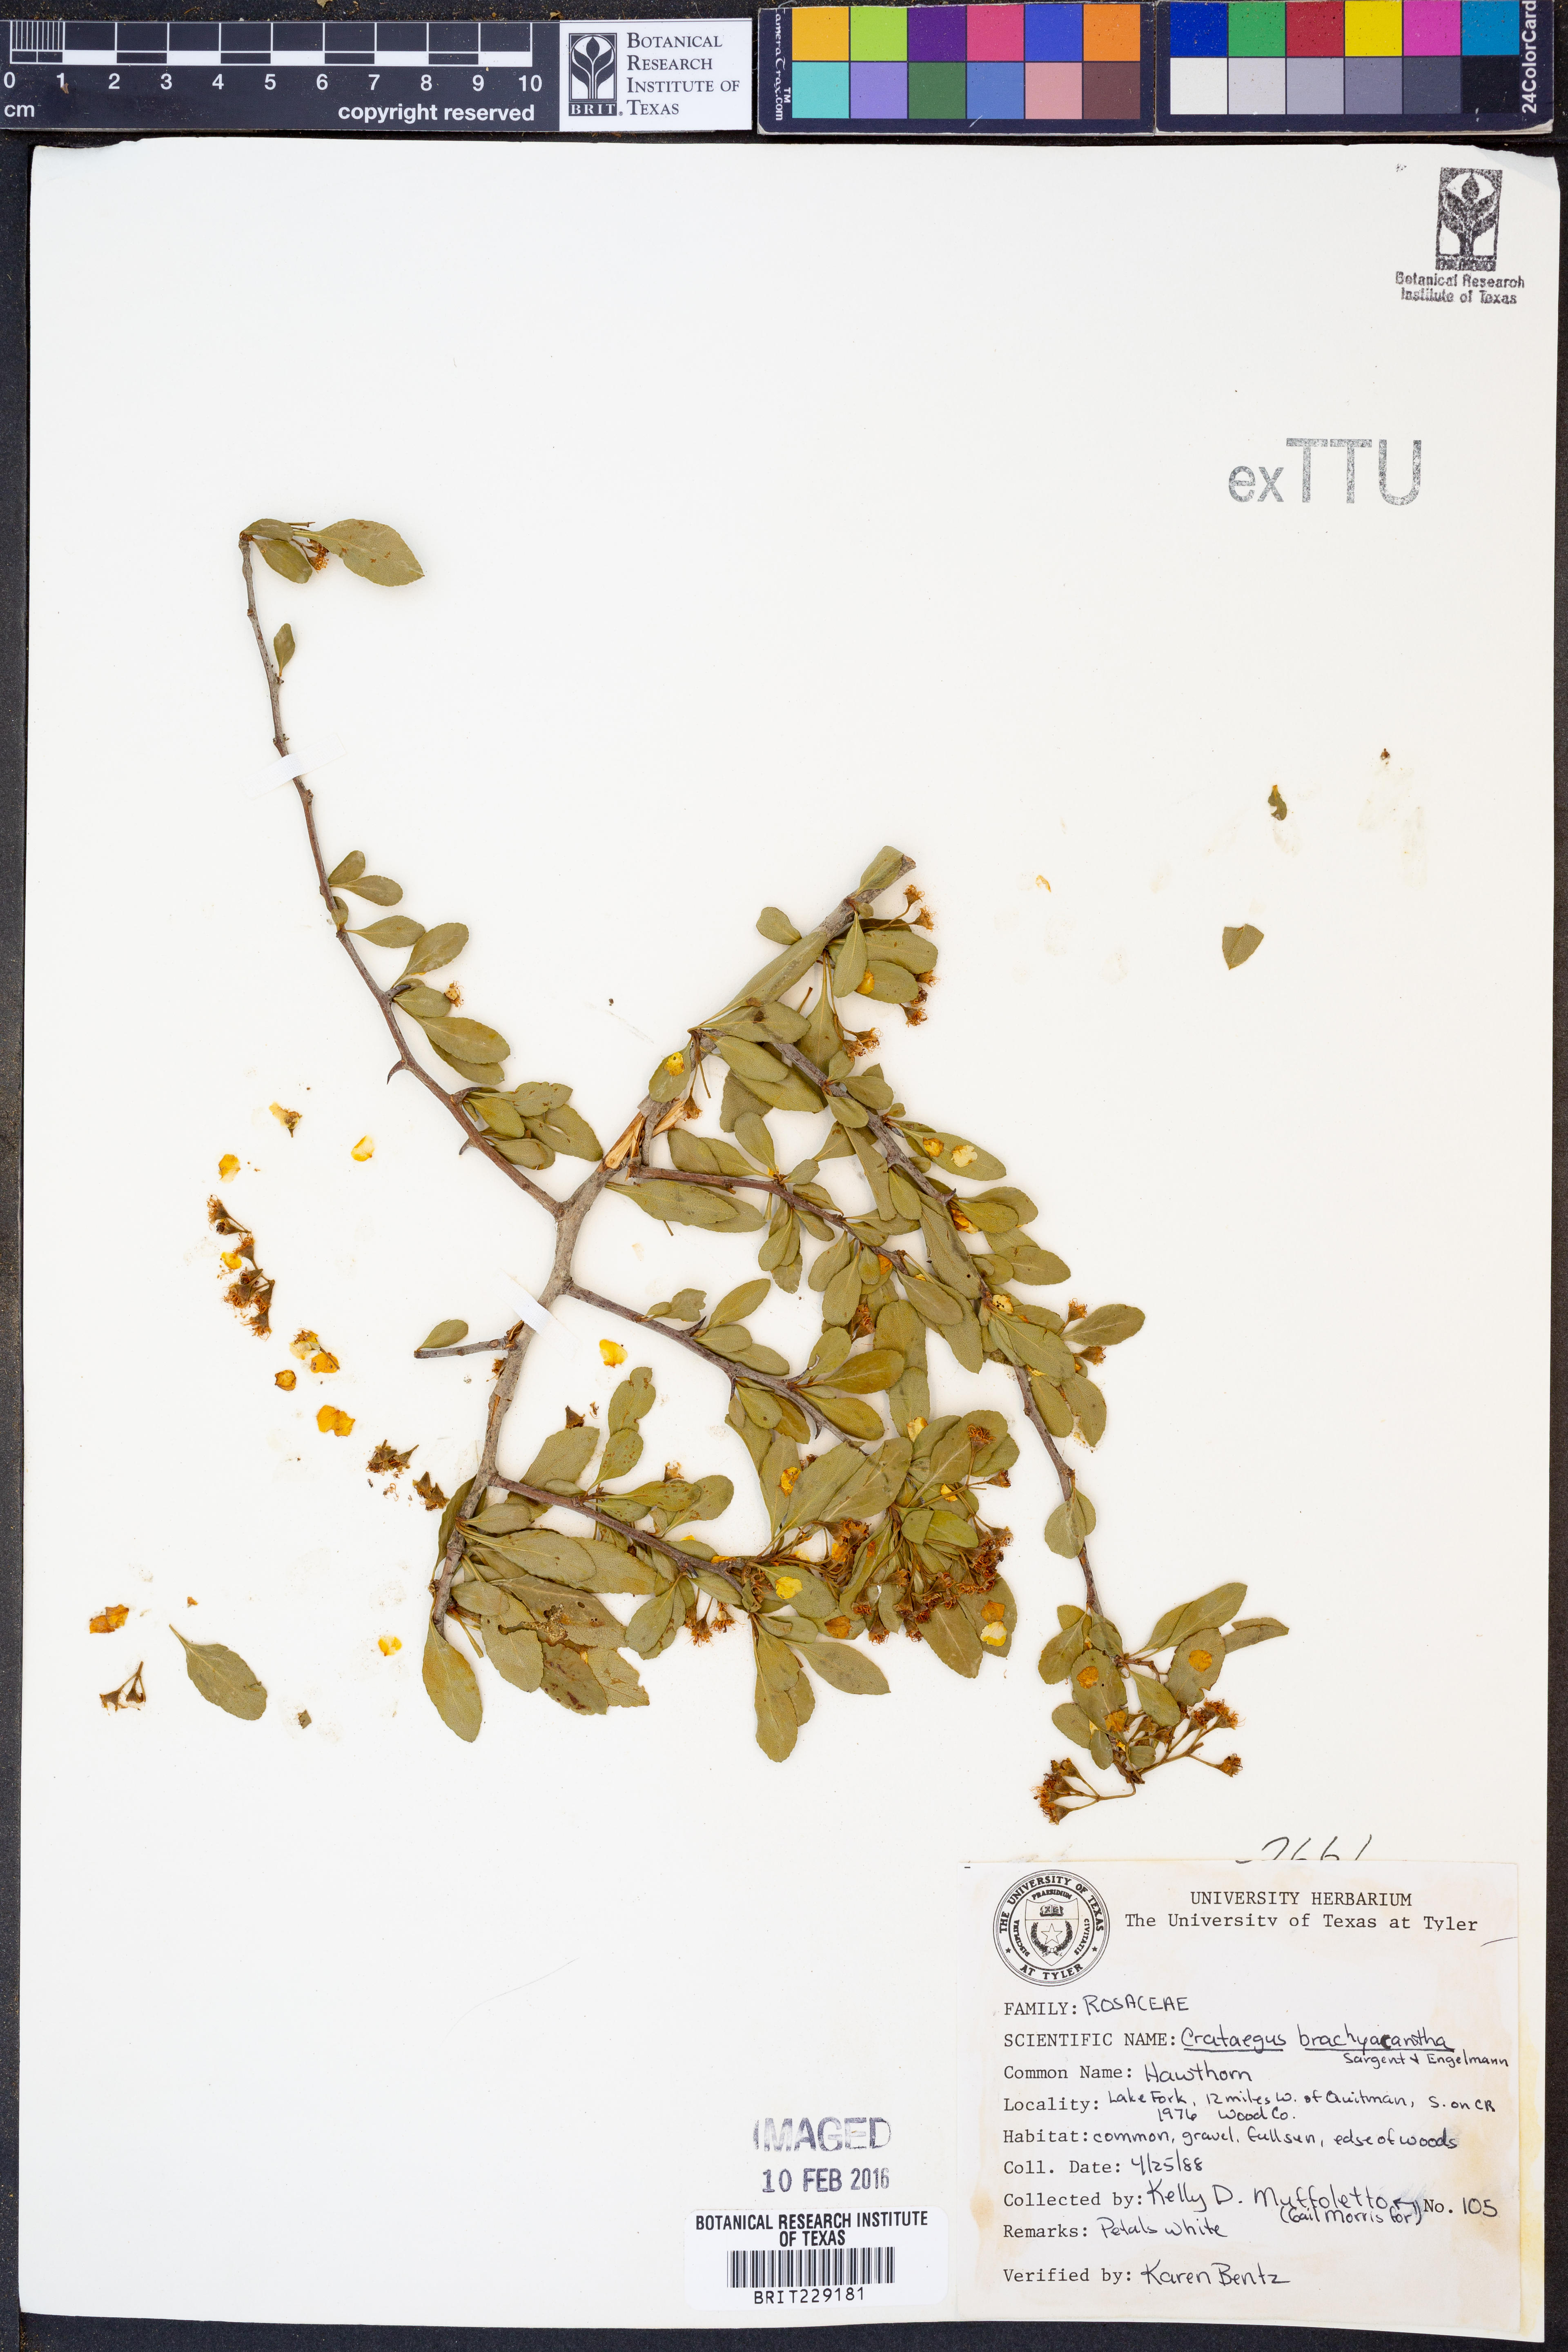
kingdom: Plantae
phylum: Tracheophyta
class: Magnoliopsida
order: Rosales
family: Rosaceae
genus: Crataegus
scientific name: Crataegus brachyacantha
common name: Blueberry-hawthorn
